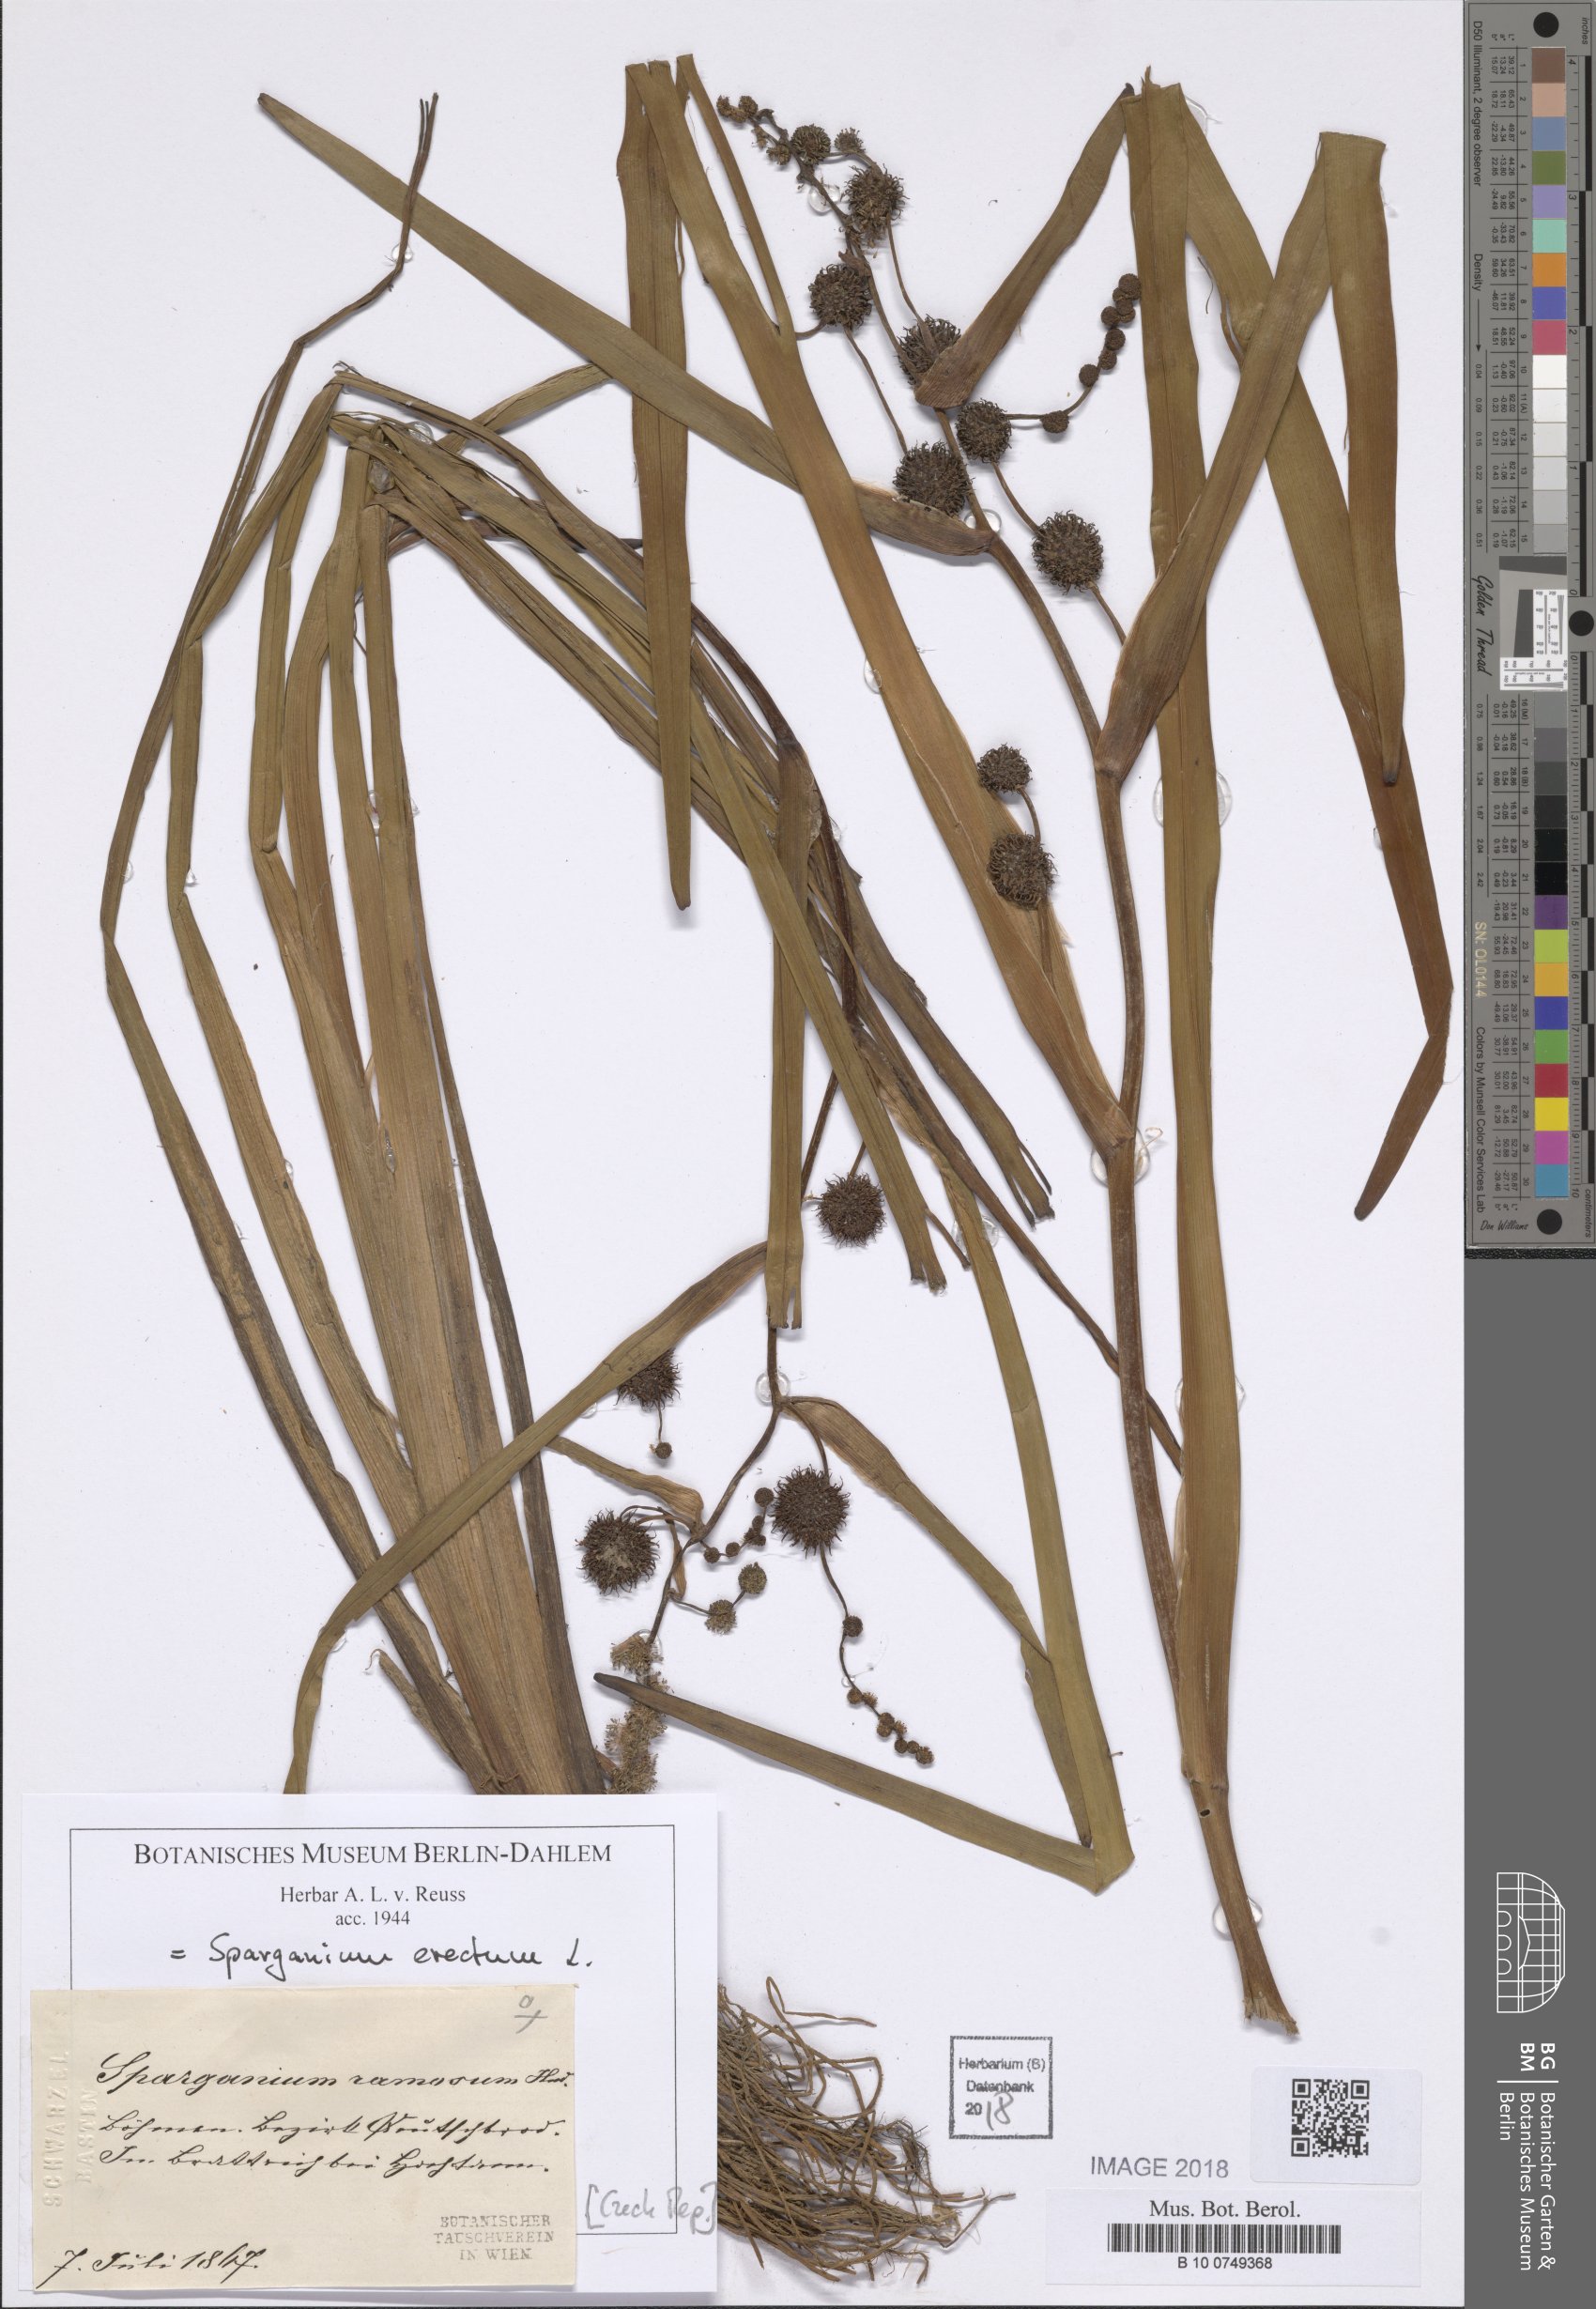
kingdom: Plantae
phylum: Tracheophyta
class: Liliopsida
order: Poales
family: Typhaceae
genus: Sparganium
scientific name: Sparganium erectum
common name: Branched bur-reed
